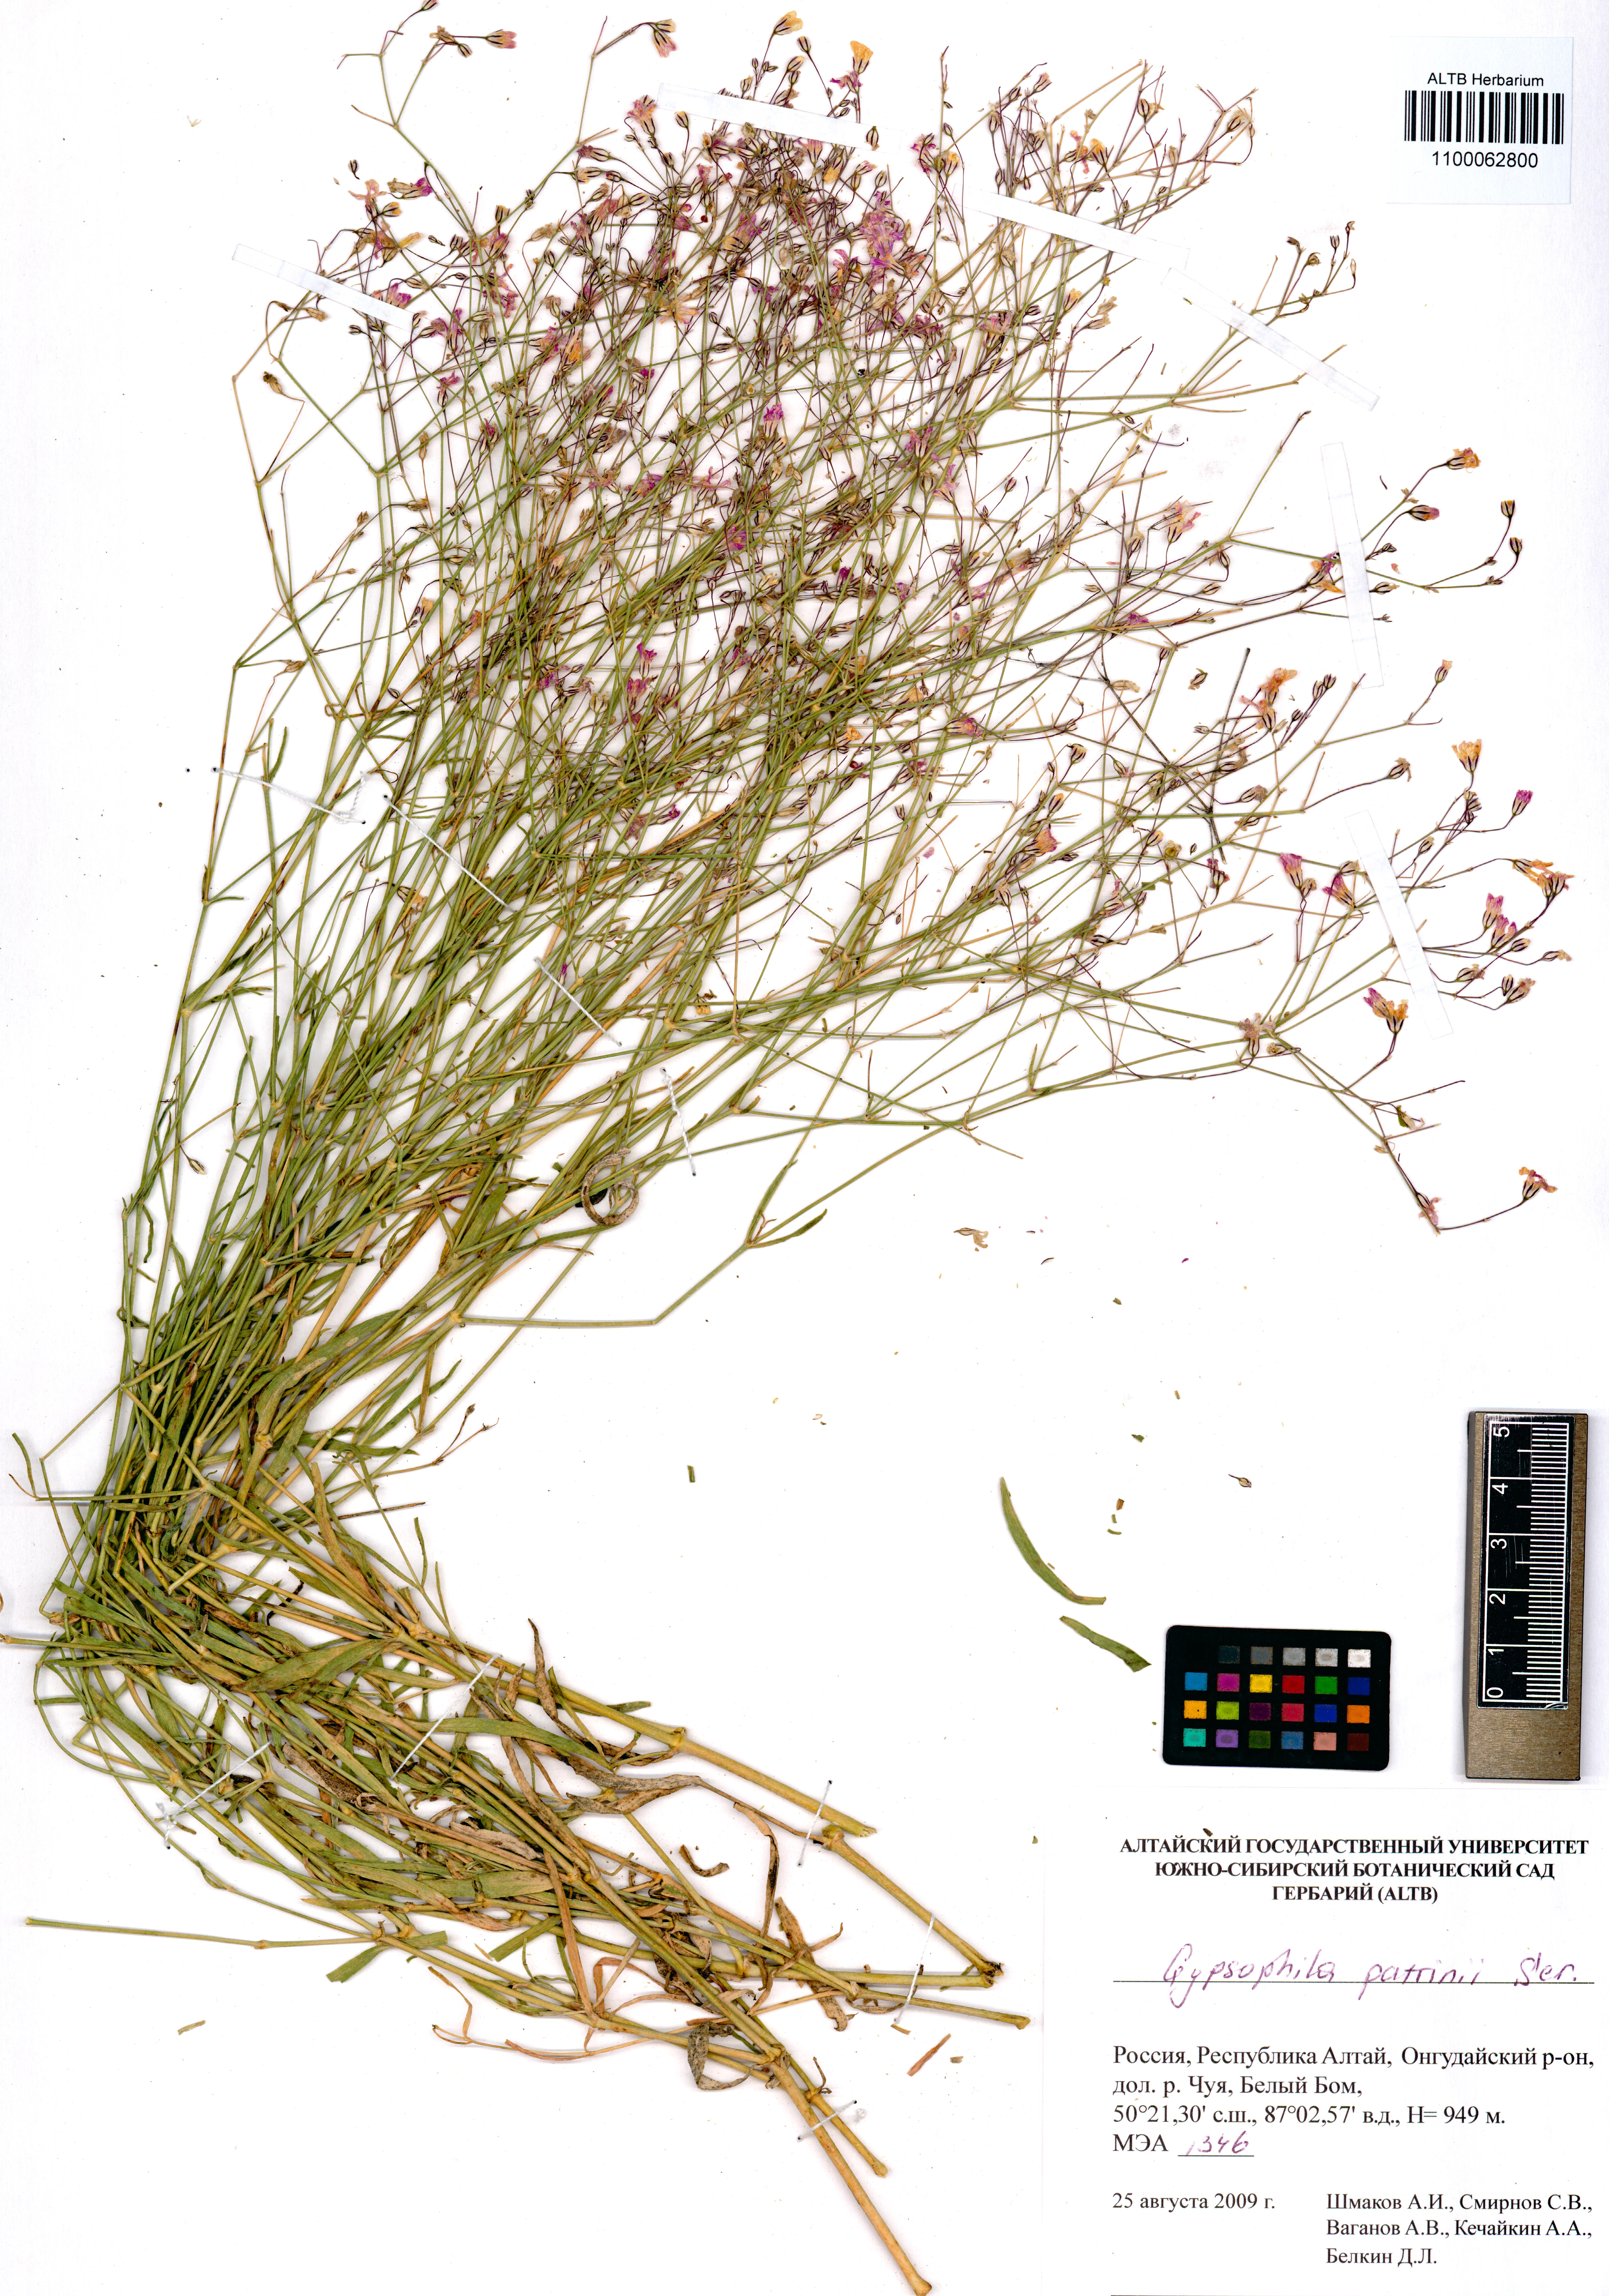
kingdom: Plantae
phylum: Tracheophyta
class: Magnoliopsida
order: Caryophyllales
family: Caryophyllaceae
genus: Gypsophila
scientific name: Gypsophila patrinii
